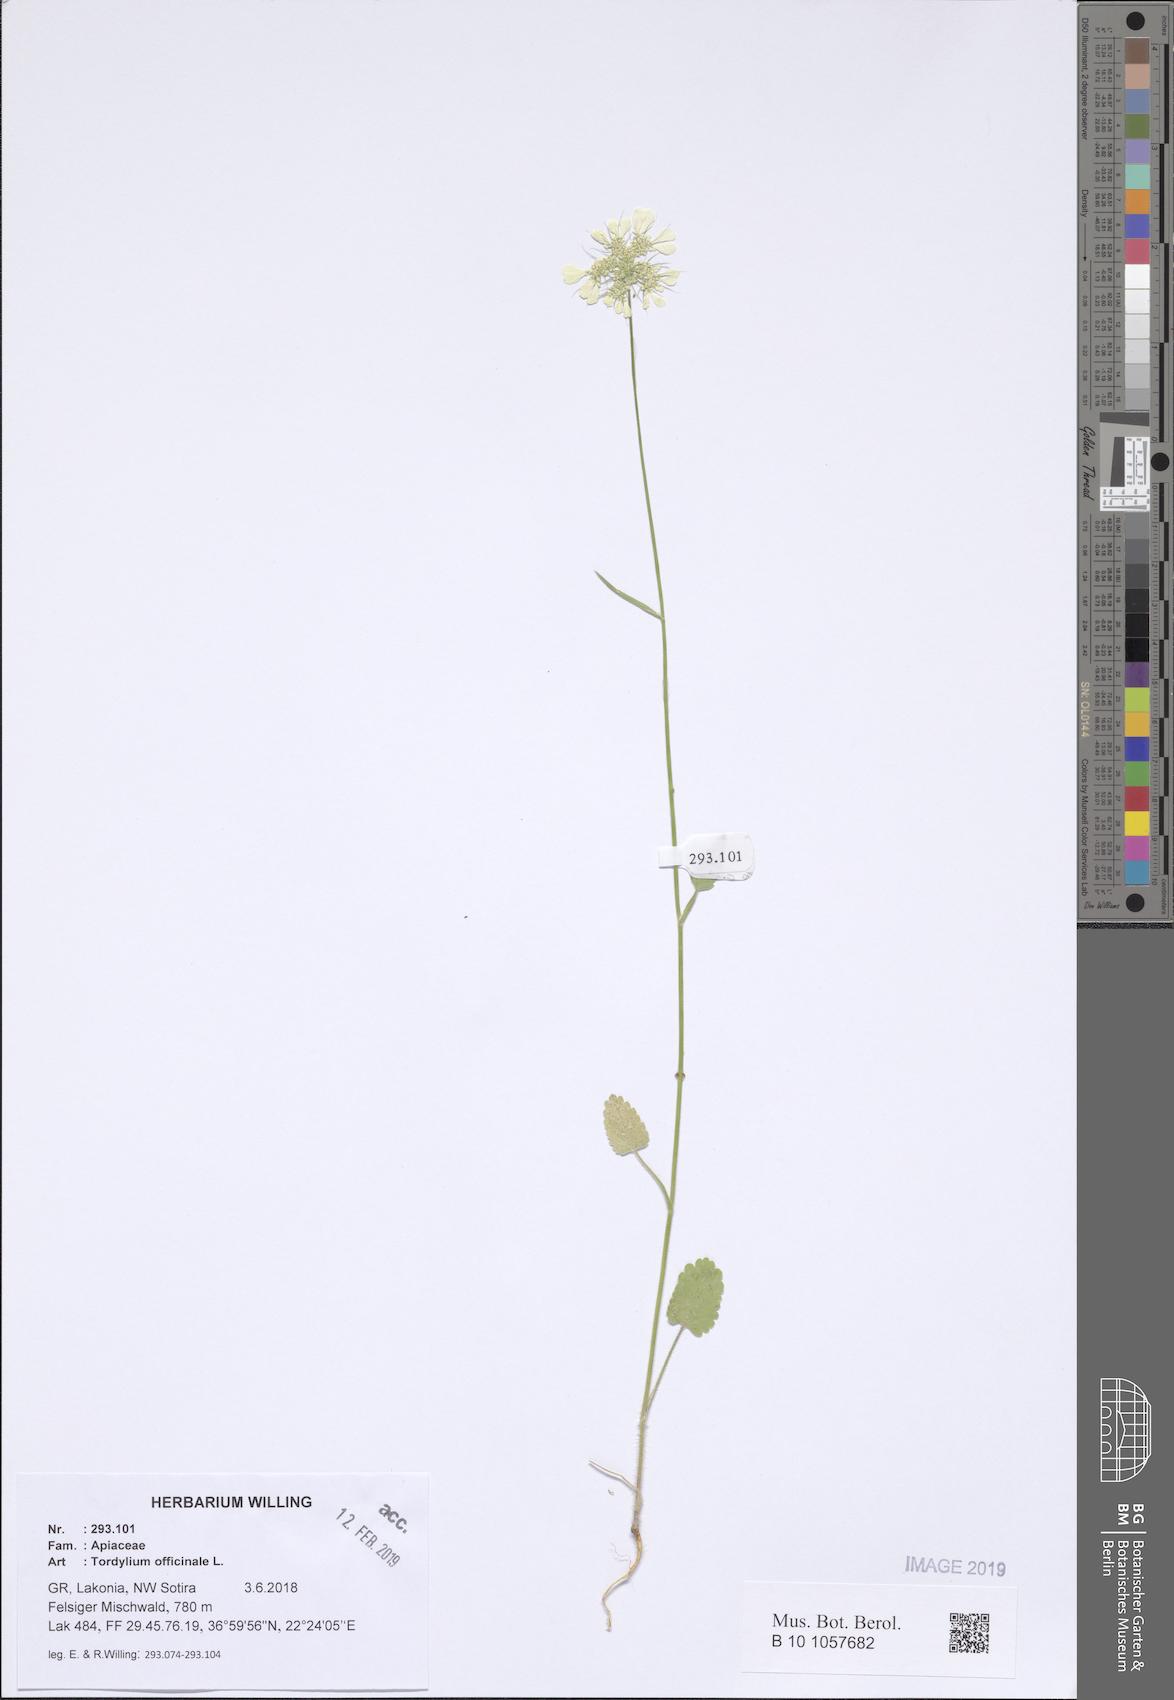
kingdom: Plantae
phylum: Tracheophyta
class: Magnoliopsida
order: Apiales
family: Apiaceae
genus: Tordylium
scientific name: Tordylium officinale
